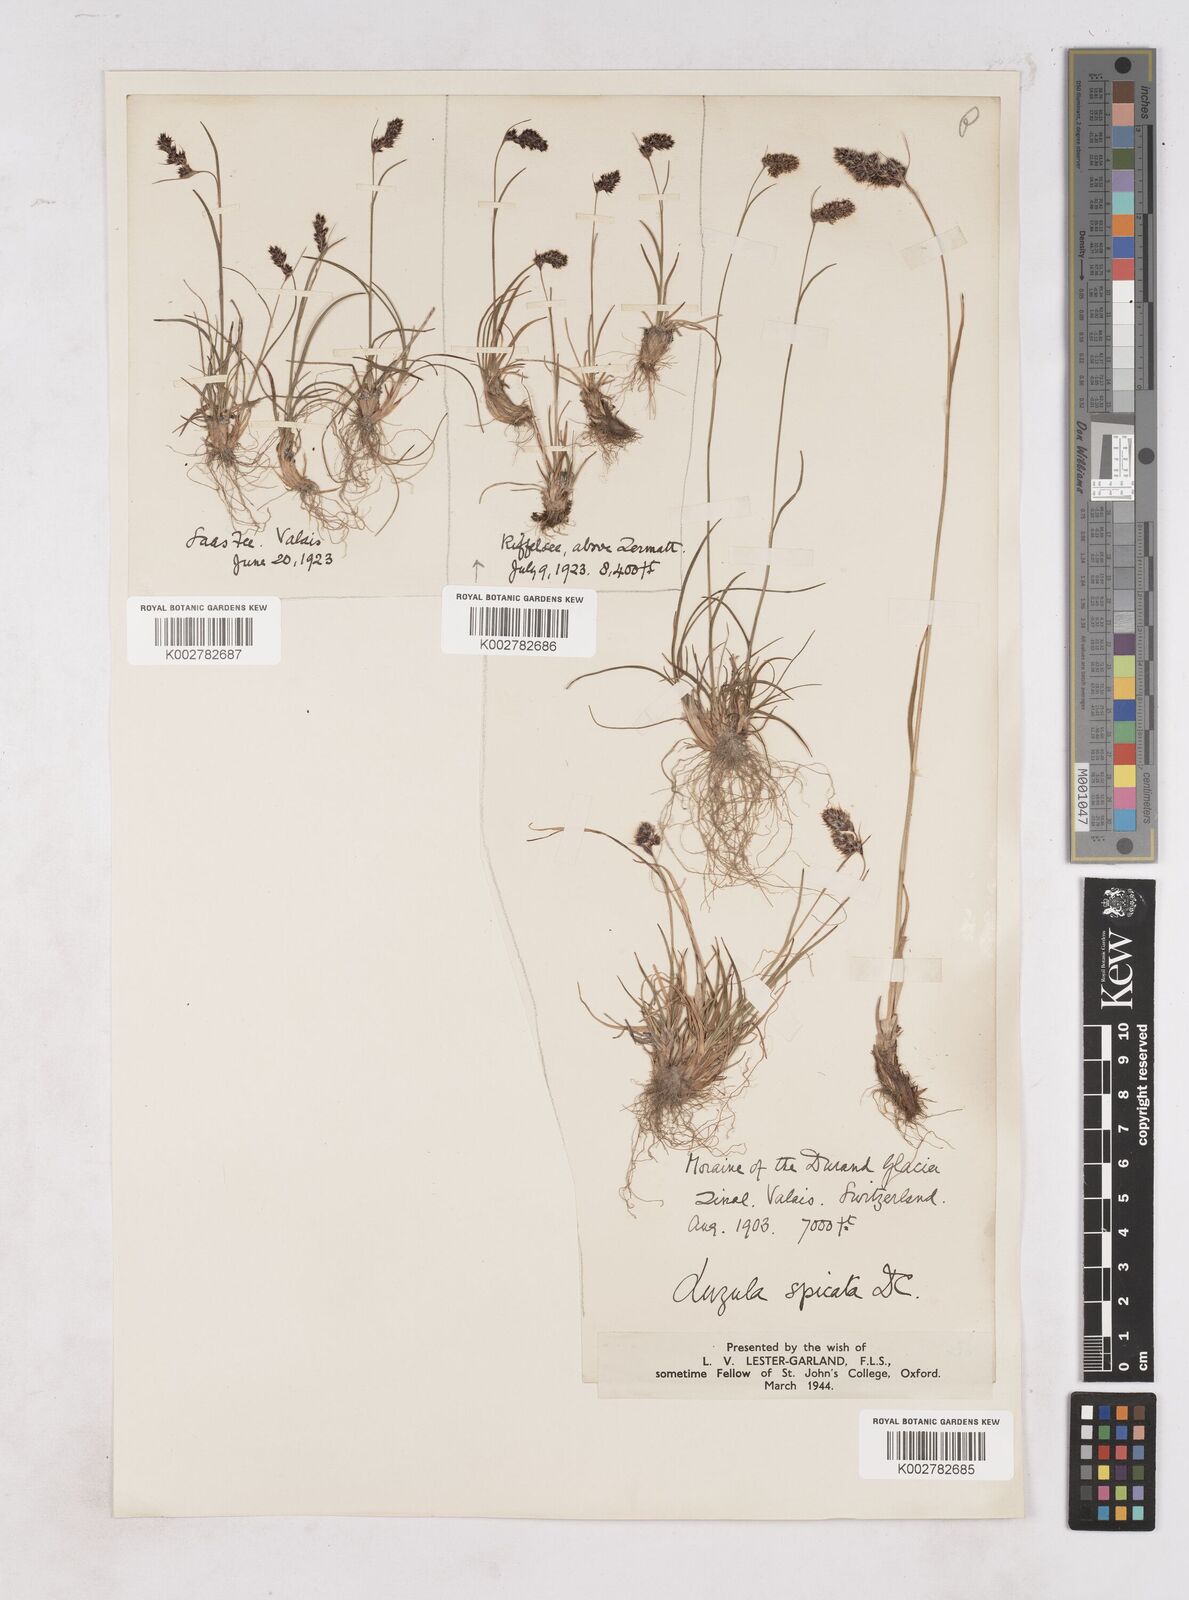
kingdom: Plantae
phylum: Tracheophyta
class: Liliopsida
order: Poales
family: Juncaceae
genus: Luzula
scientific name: Luzula spicata
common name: Spiked wood-rush
